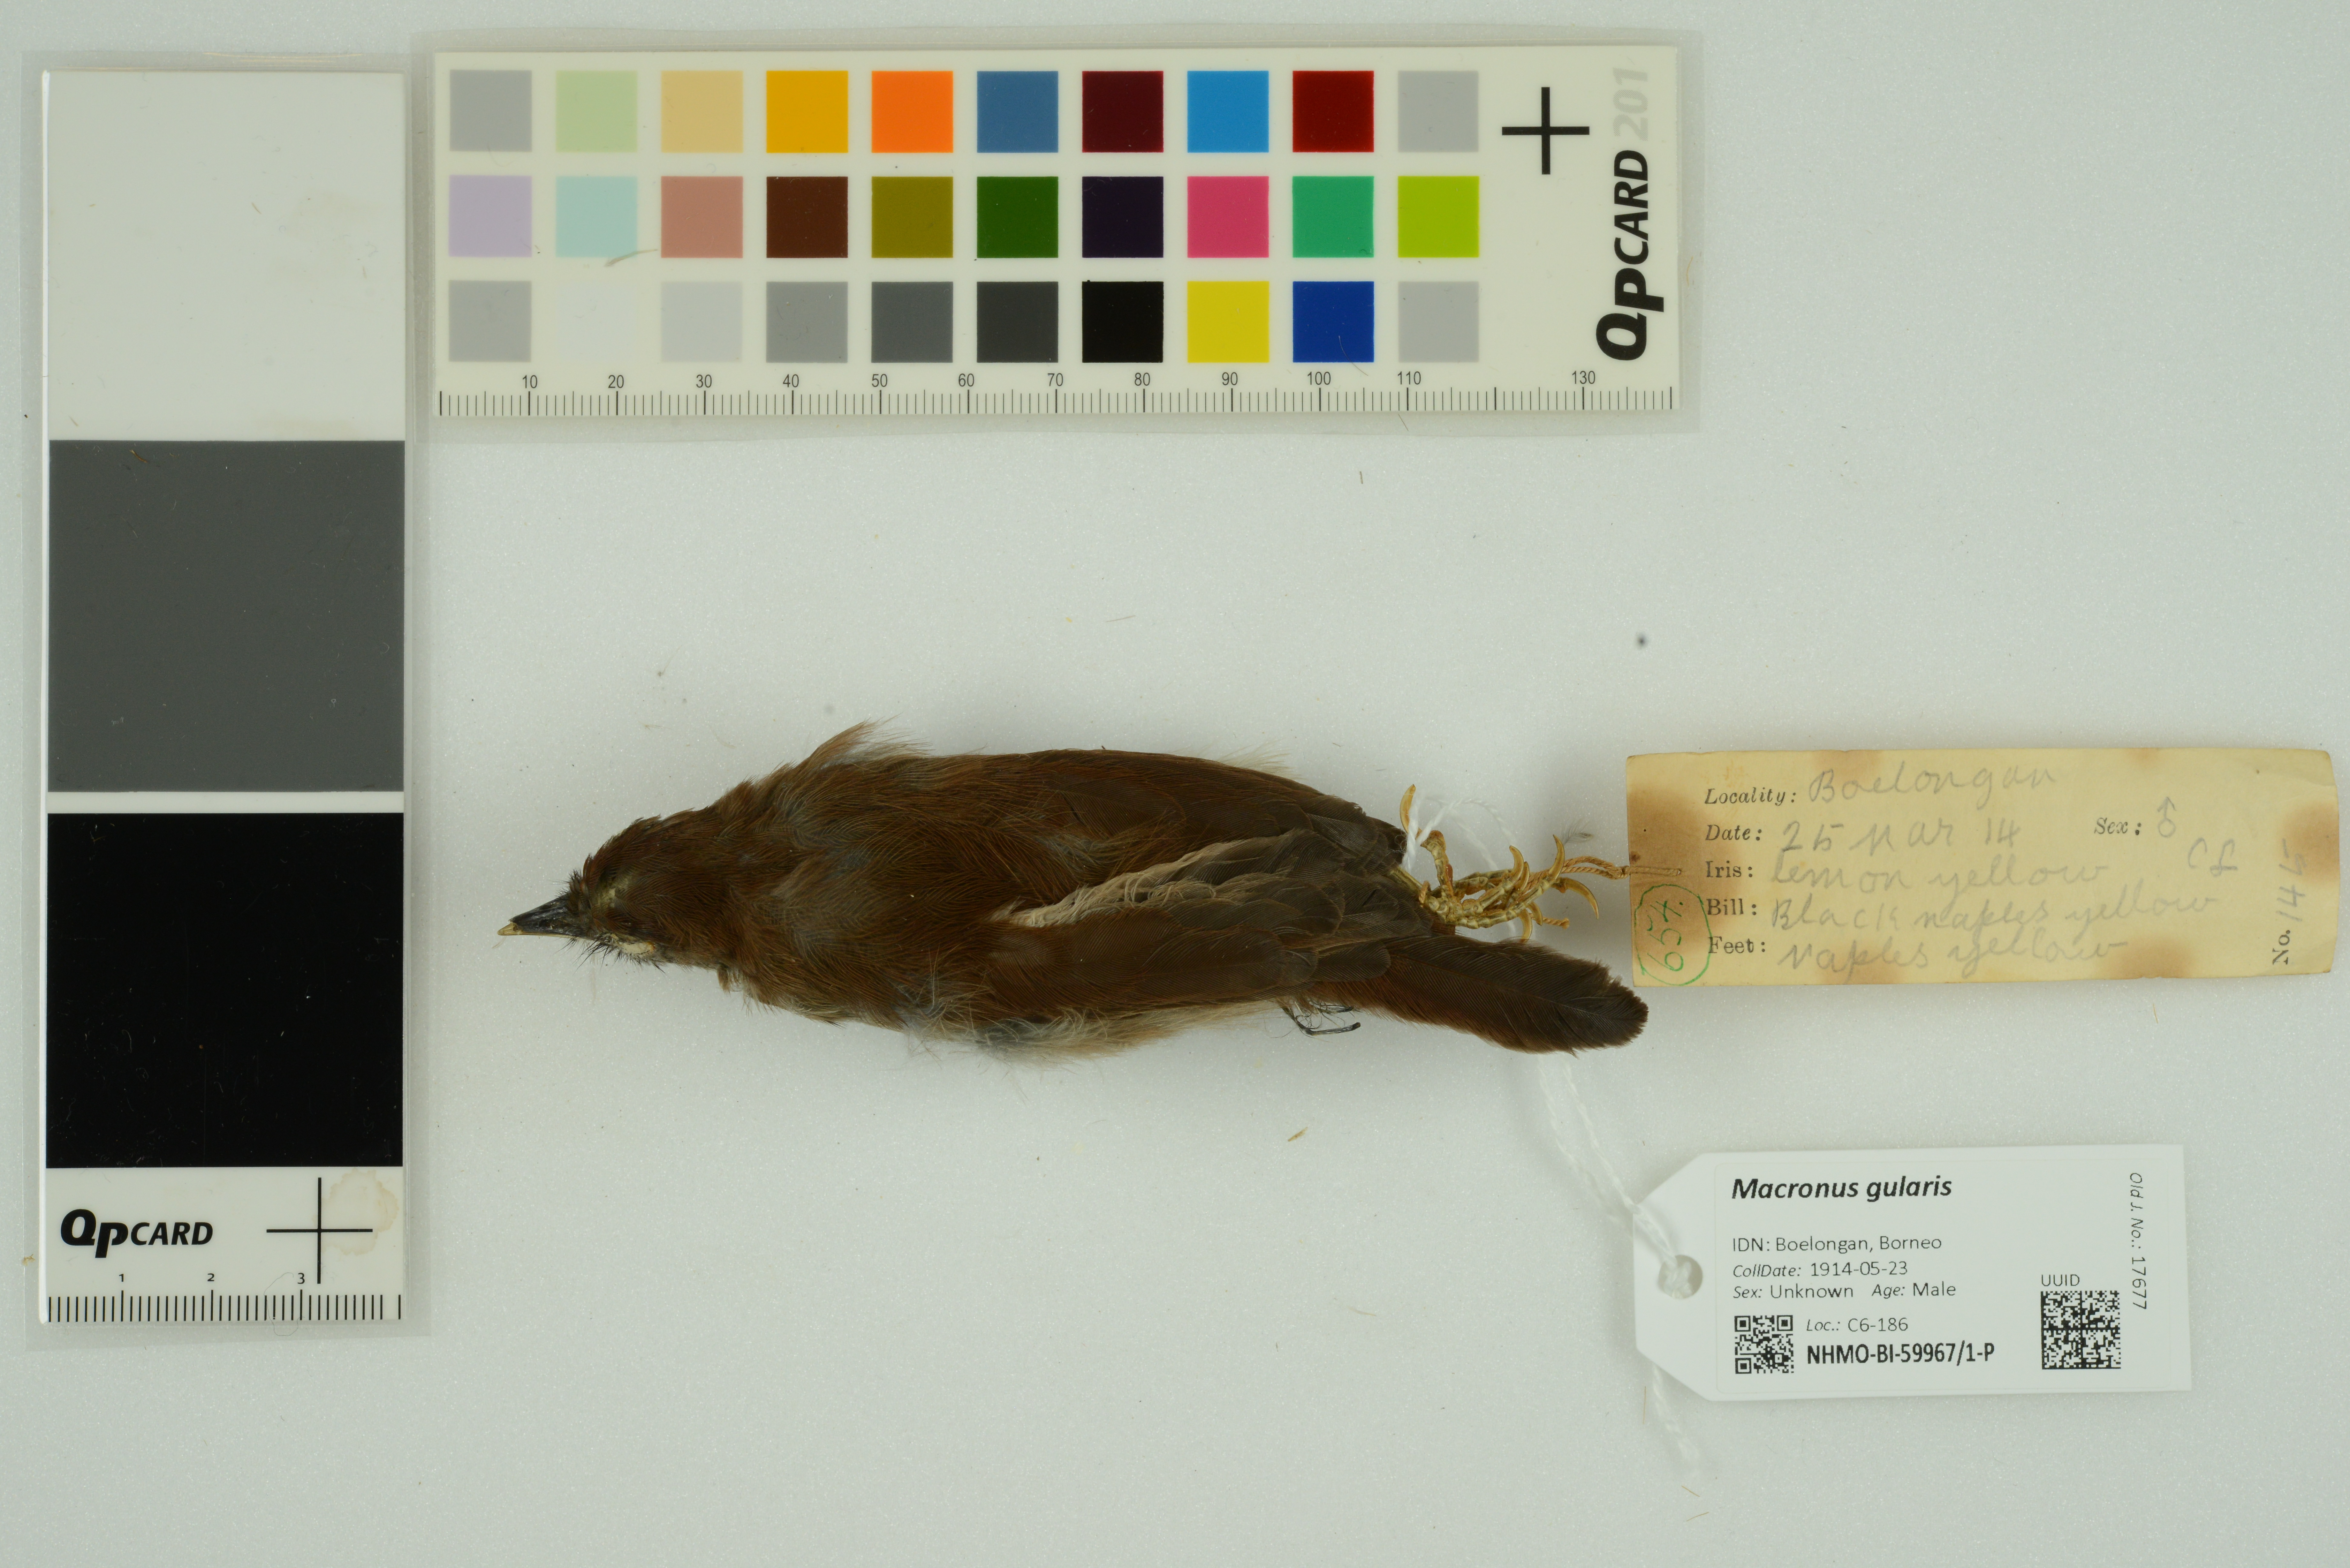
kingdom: Animalia
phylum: Chordata
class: Aves
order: Passeriformes
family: Timaliidae
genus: Macronus
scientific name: Macronus gularis
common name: Striped tit-babbler
